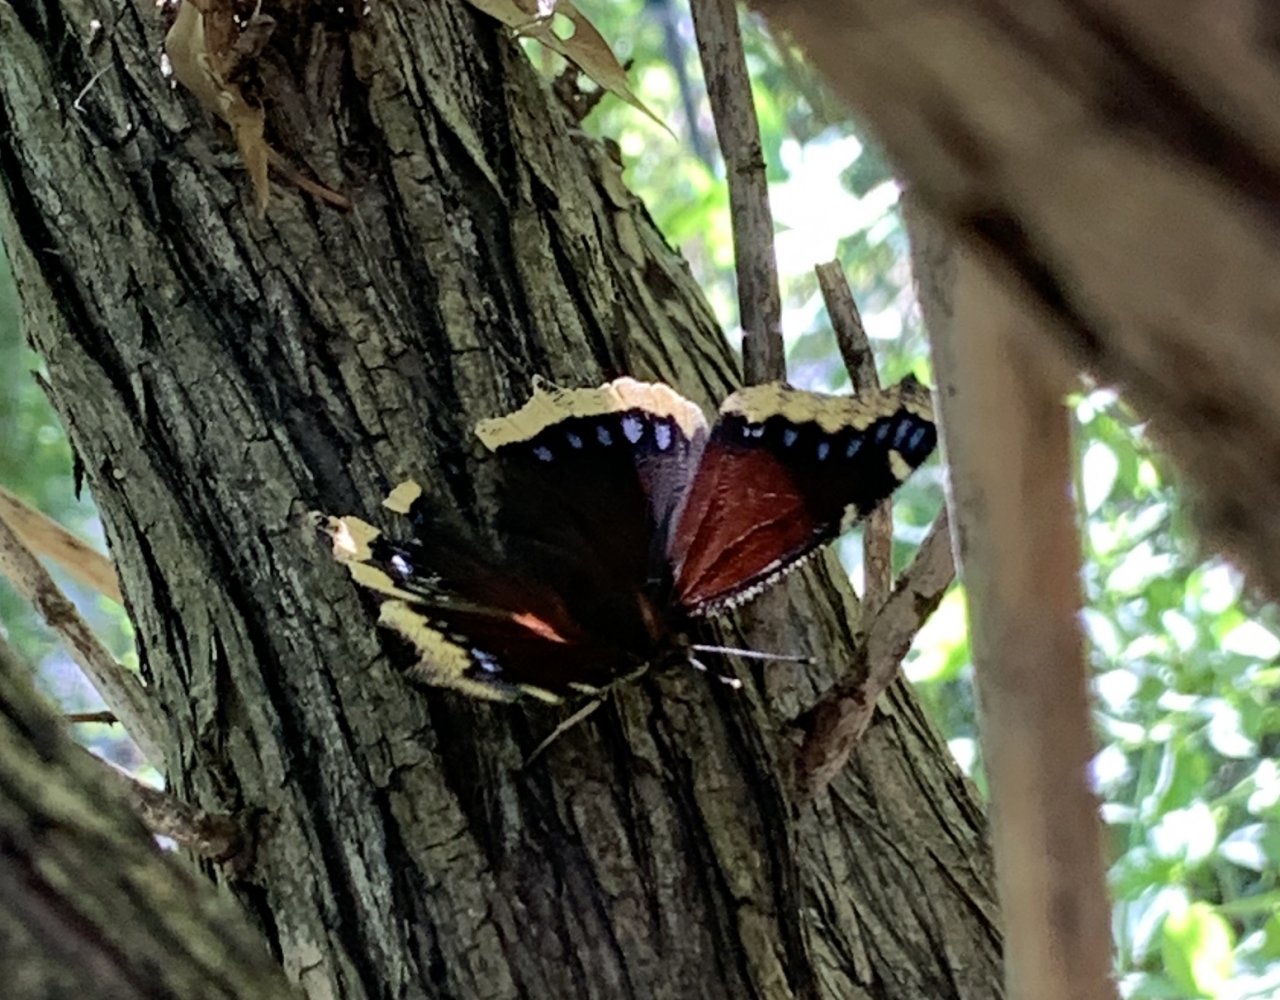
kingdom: Animalia
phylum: Arthropoda
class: Insecta
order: Lepidoptera
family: Nymphalidae
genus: Nymphalis
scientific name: Nymphalis antiopa
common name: Mourning Cloak
